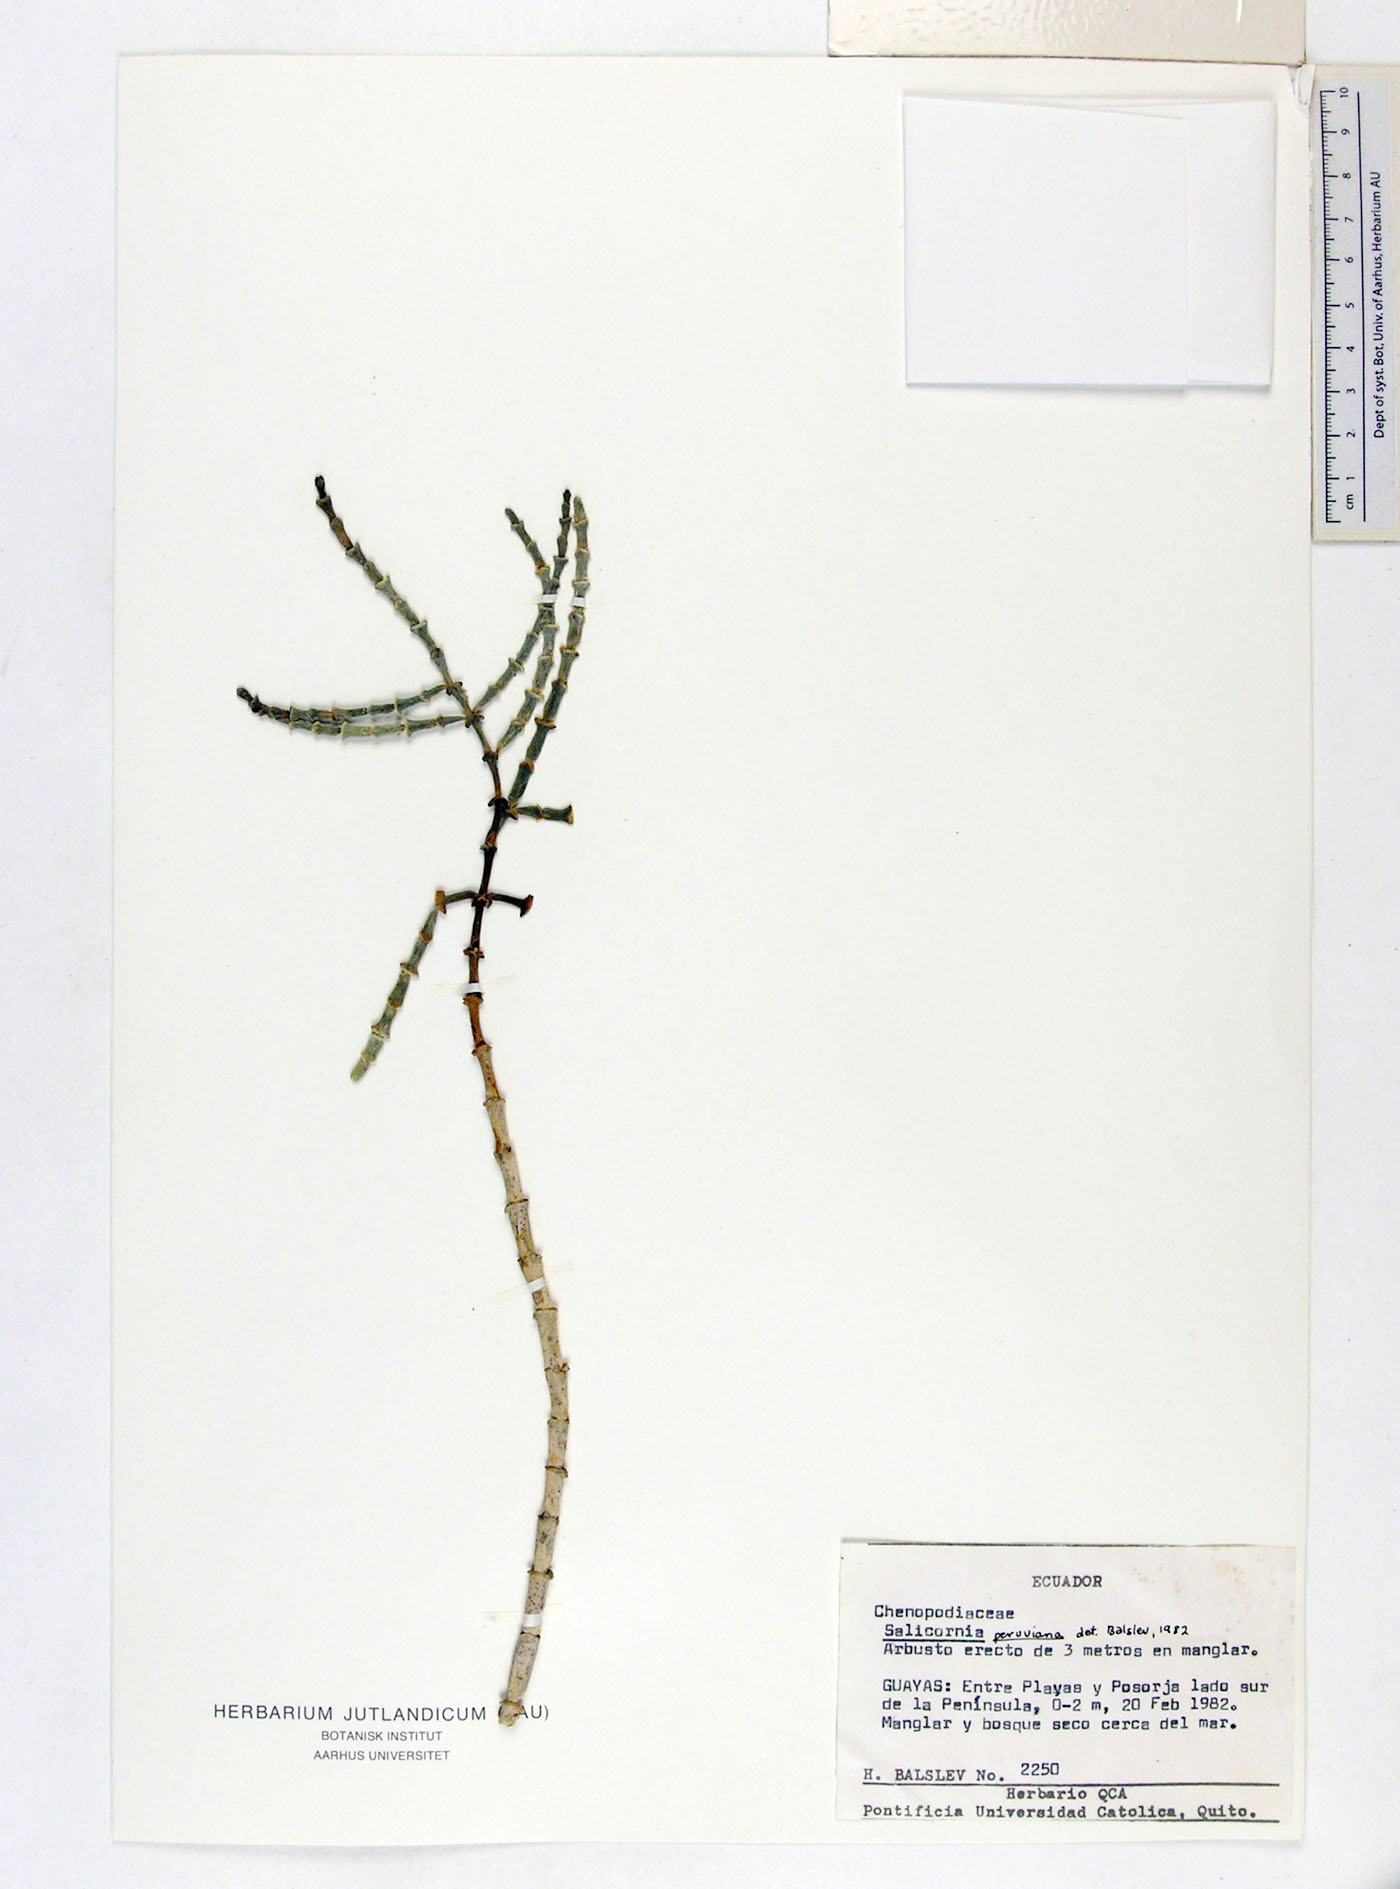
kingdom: Plantae
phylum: Tracheophyta
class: Magnoliopsida
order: Caryophyllales
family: Amaranthaceae
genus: Mangleticornia
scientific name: Mangleticornia ecuadorensis
